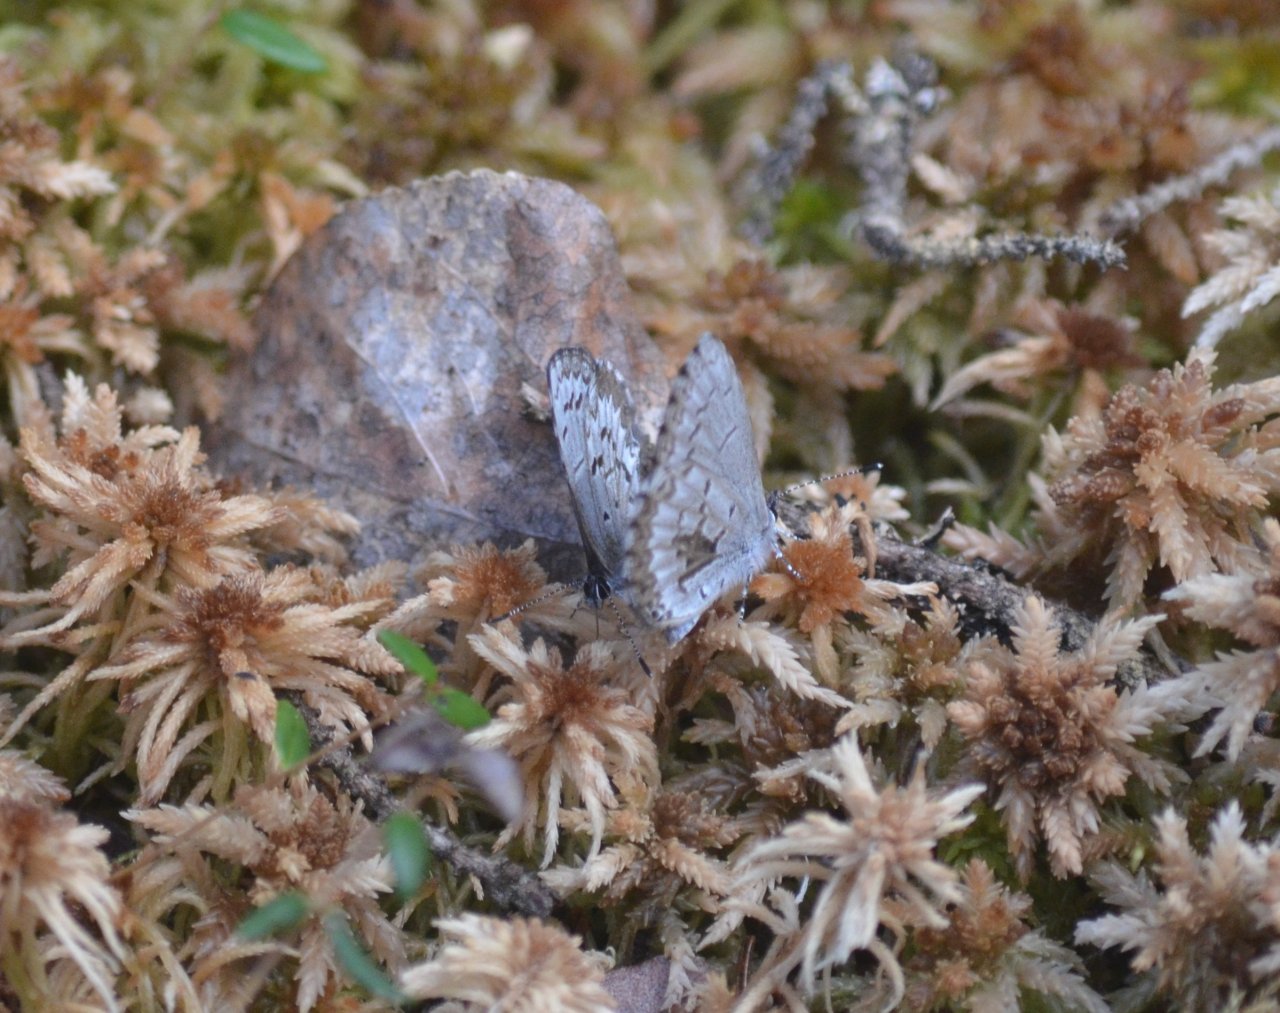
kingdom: Animalia
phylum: Arthropoda
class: Insecta
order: Lepidoptera
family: Lycaenidae
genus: Celastrina
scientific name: Celastrina lucia
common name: Northern Spring Azure
